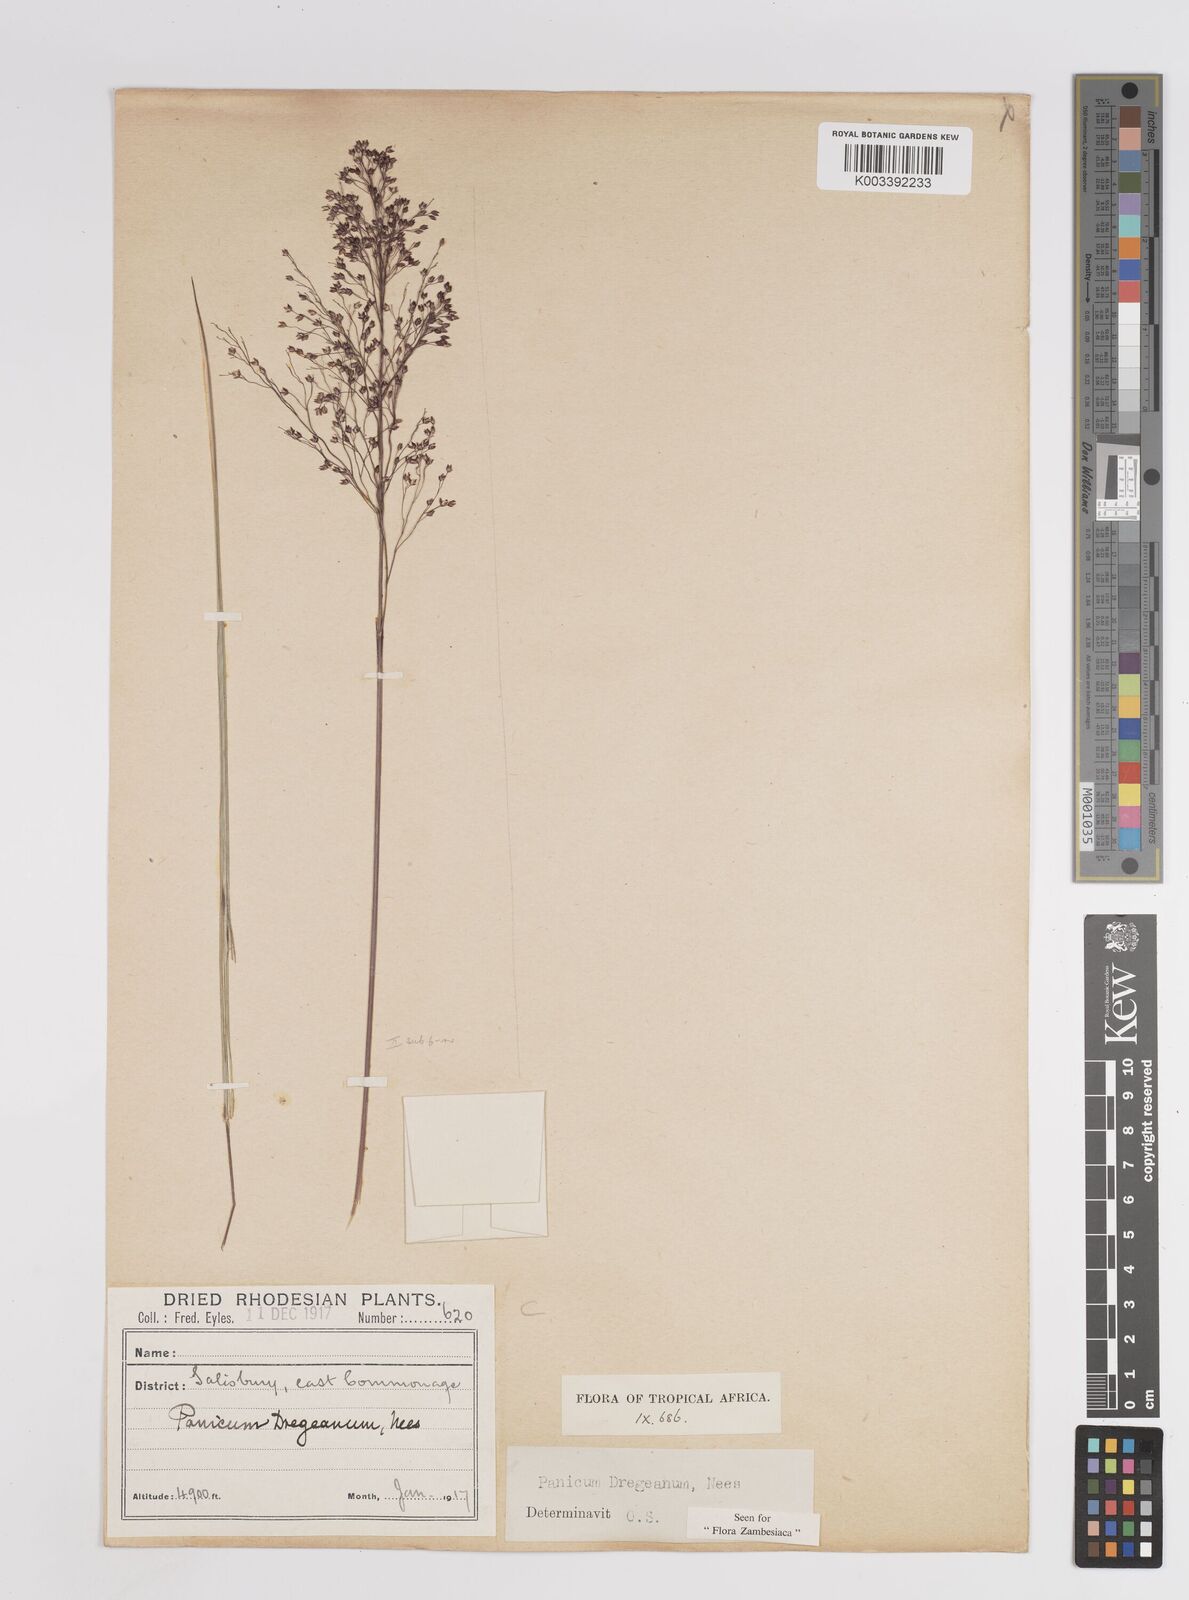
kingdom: Plantae
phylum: Tracheophyta
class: Liliopsida
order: Poales
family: Poaceae
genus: Panicum
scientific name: Panicum dregeanum
